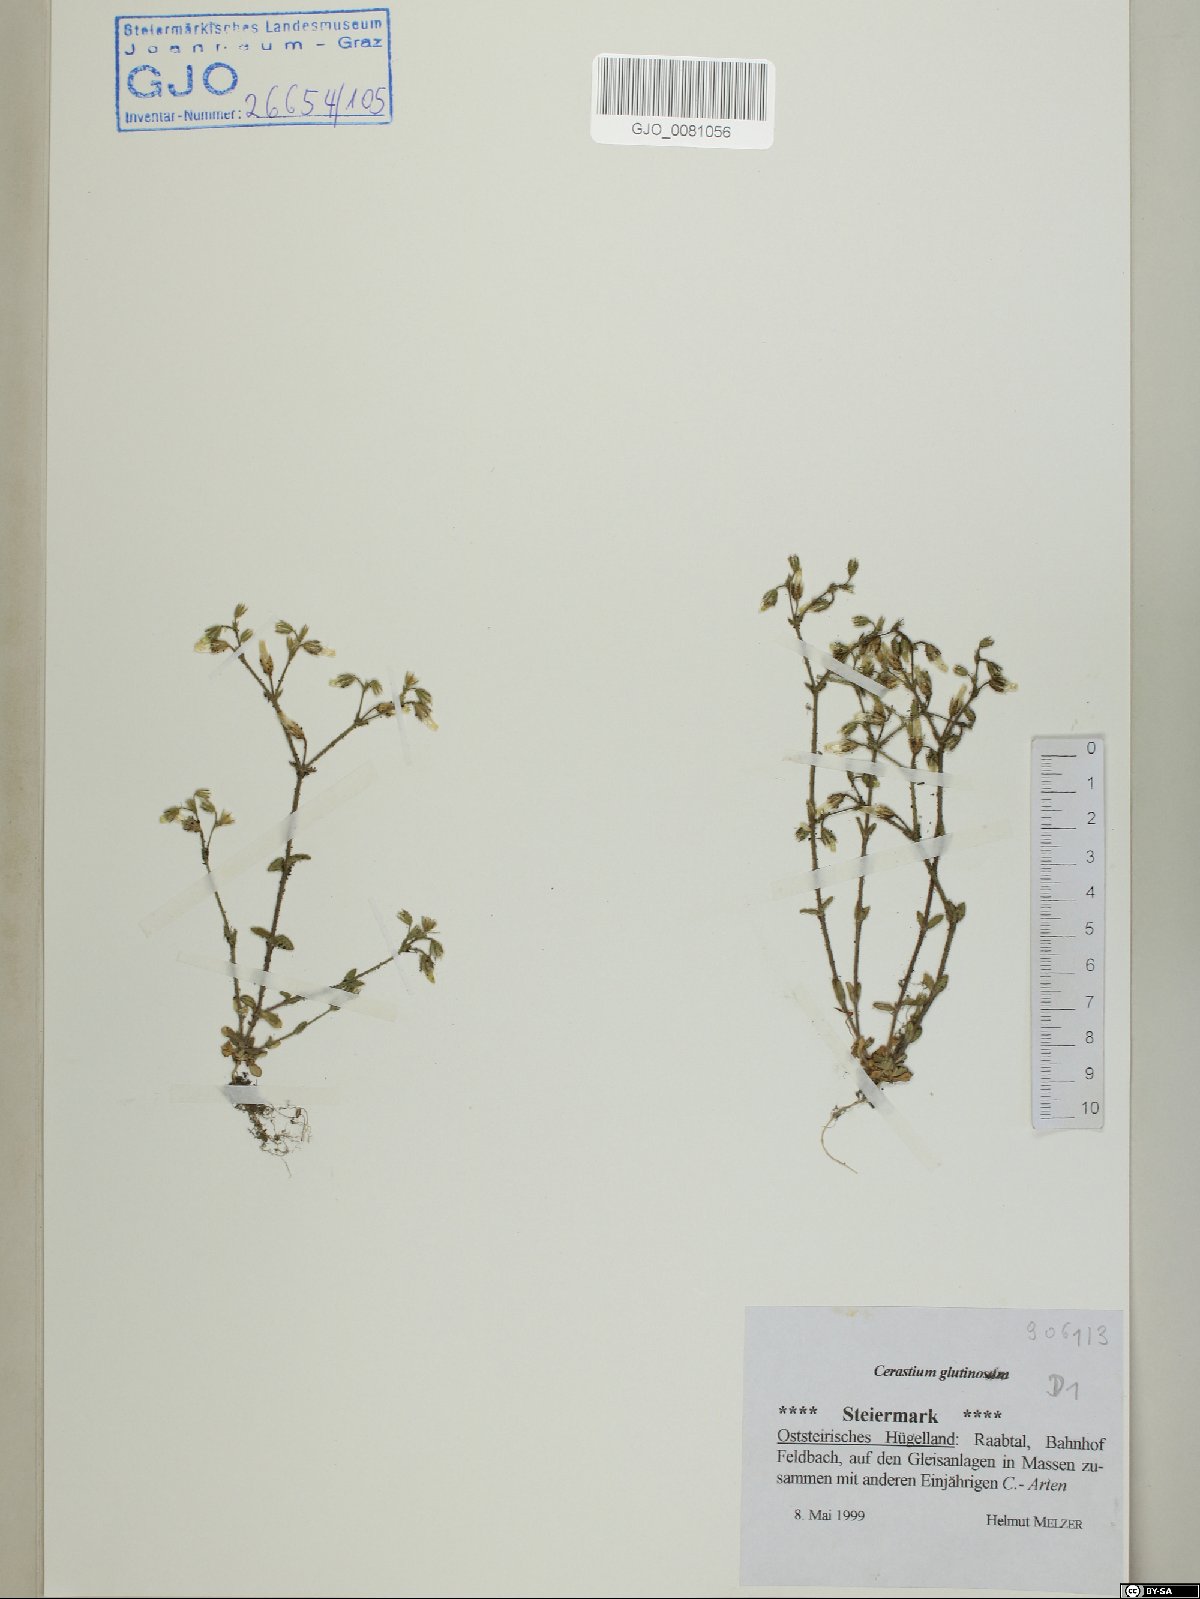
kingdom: Plantae
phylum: Tracheophyta
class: Magnoliopsida
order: Caryophyllales
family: Caryophyllaceae
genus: Cerastium
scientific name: Cerastium glutinosum
